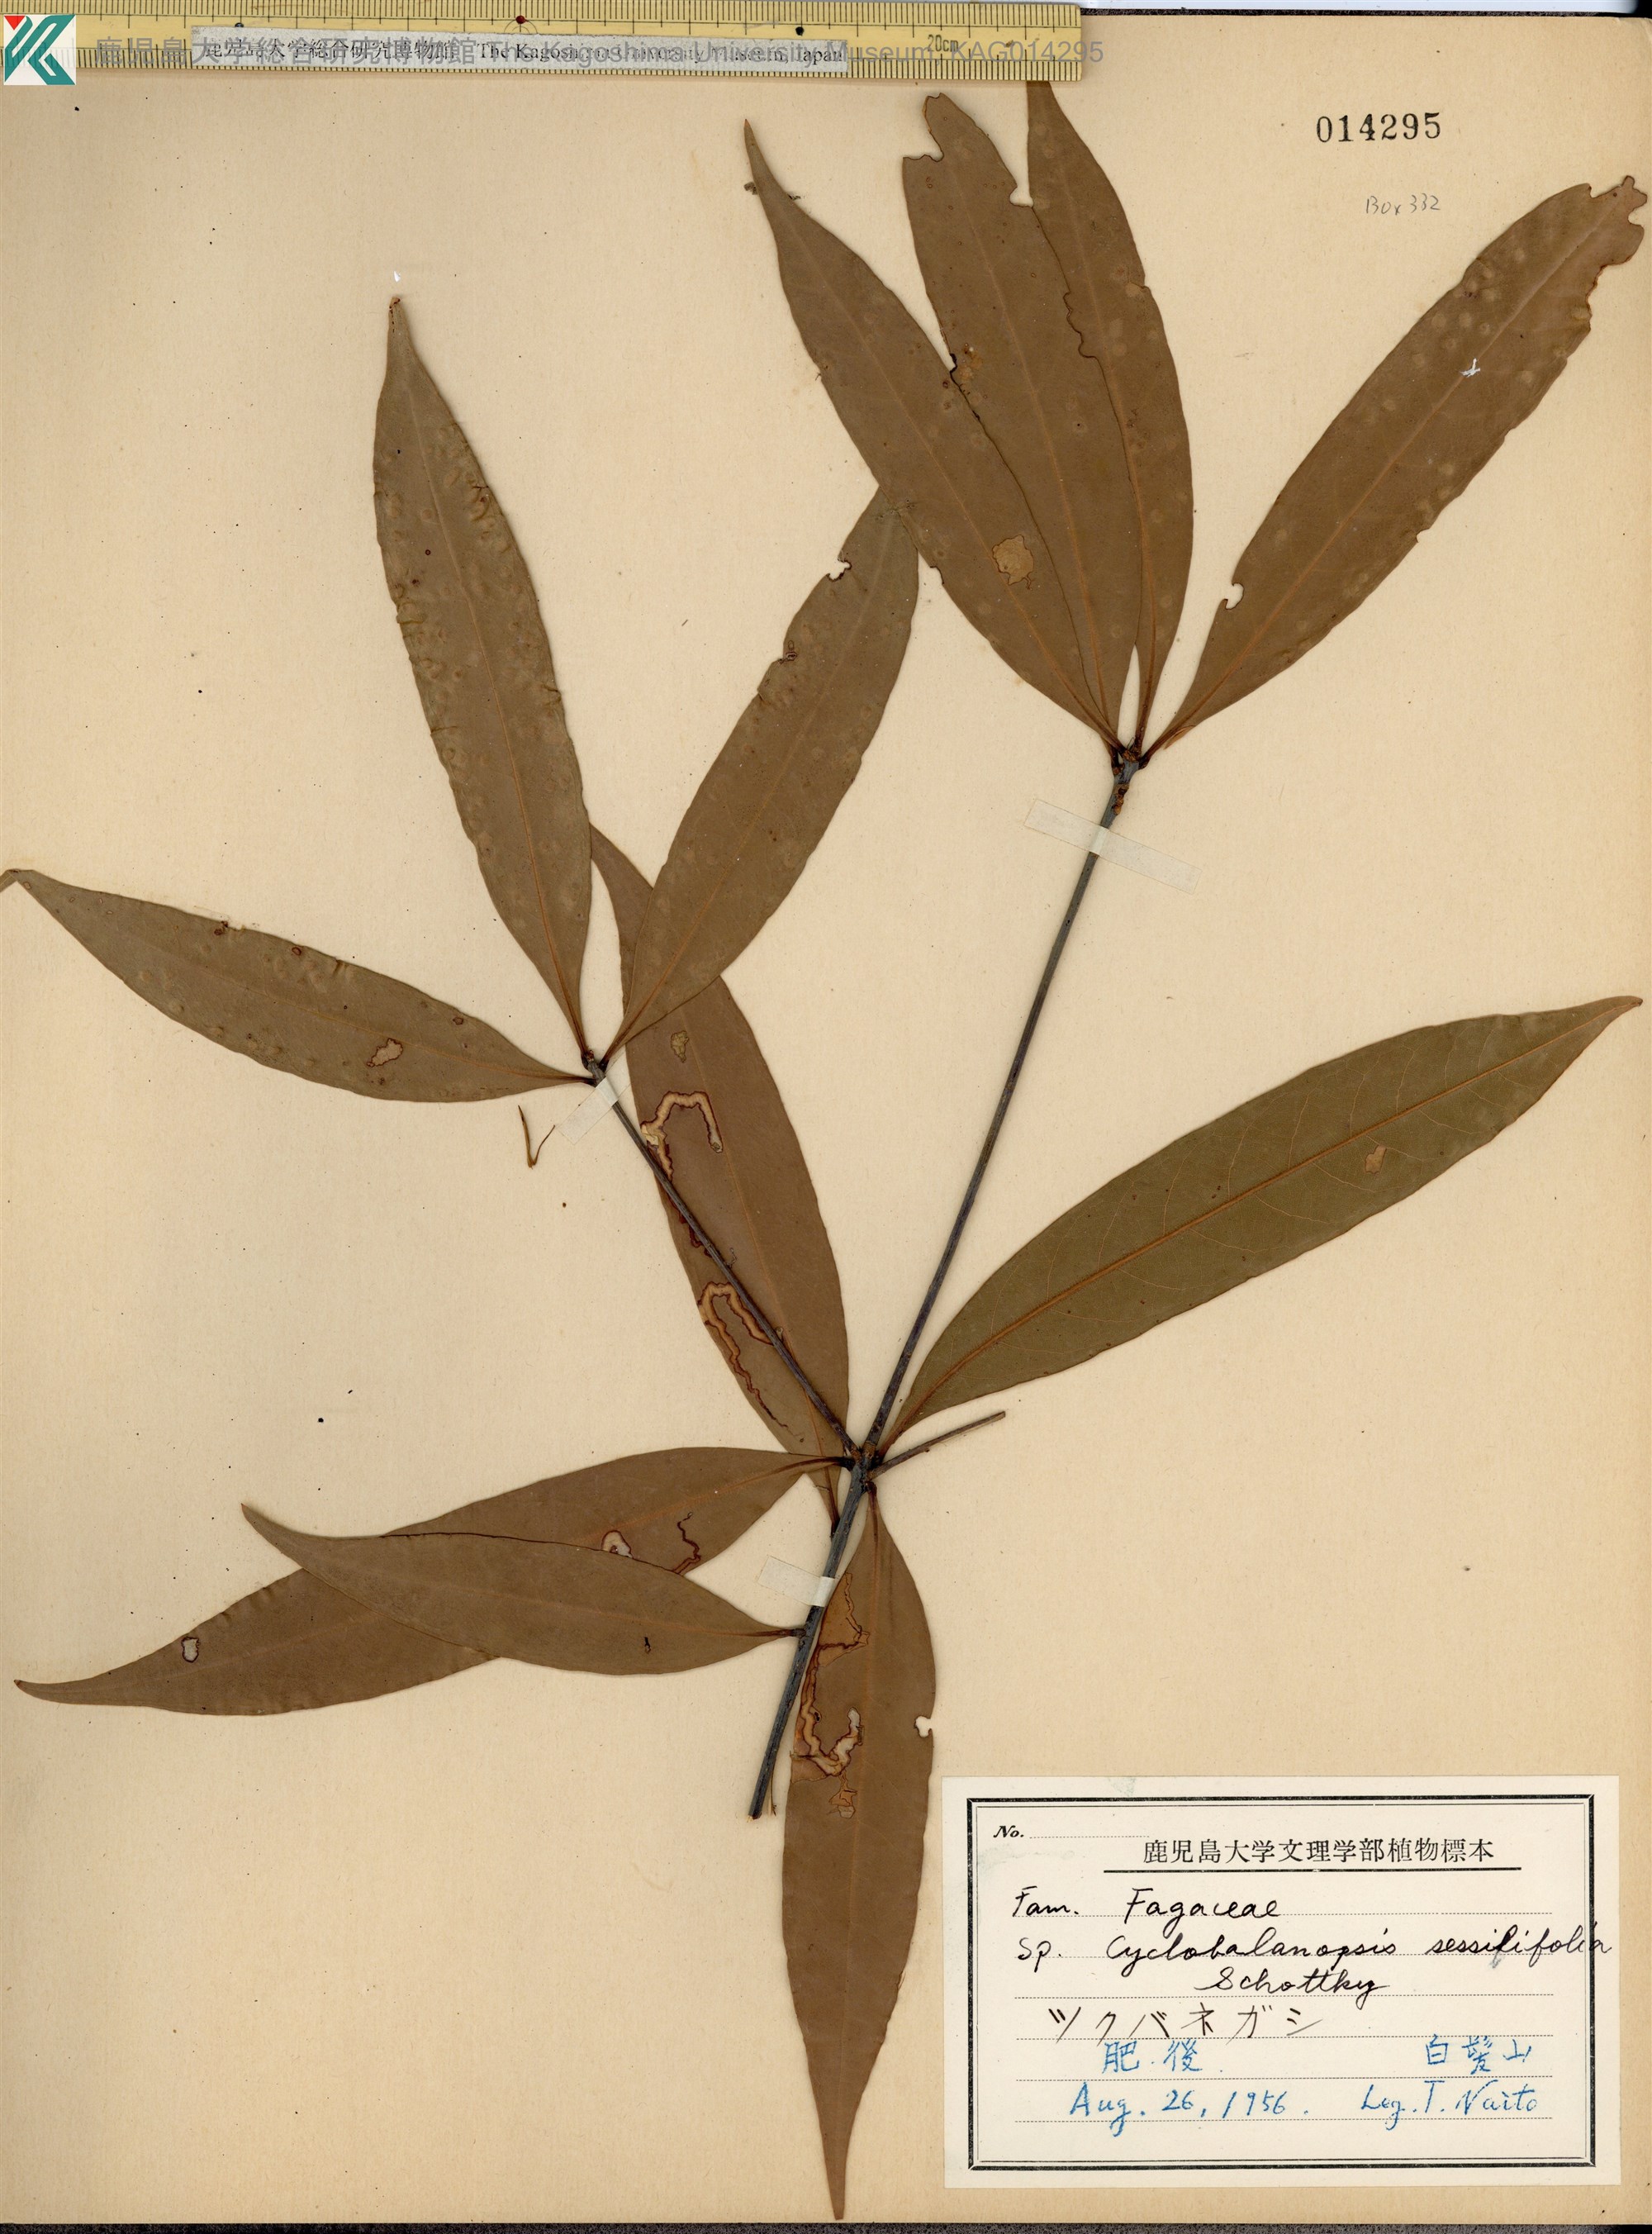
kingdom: Plantae
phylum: Tracheophyta
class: Magnoliopsida
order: Fagales
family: Fagaceae
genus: Quercus
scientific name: Quercus sessilifolia
